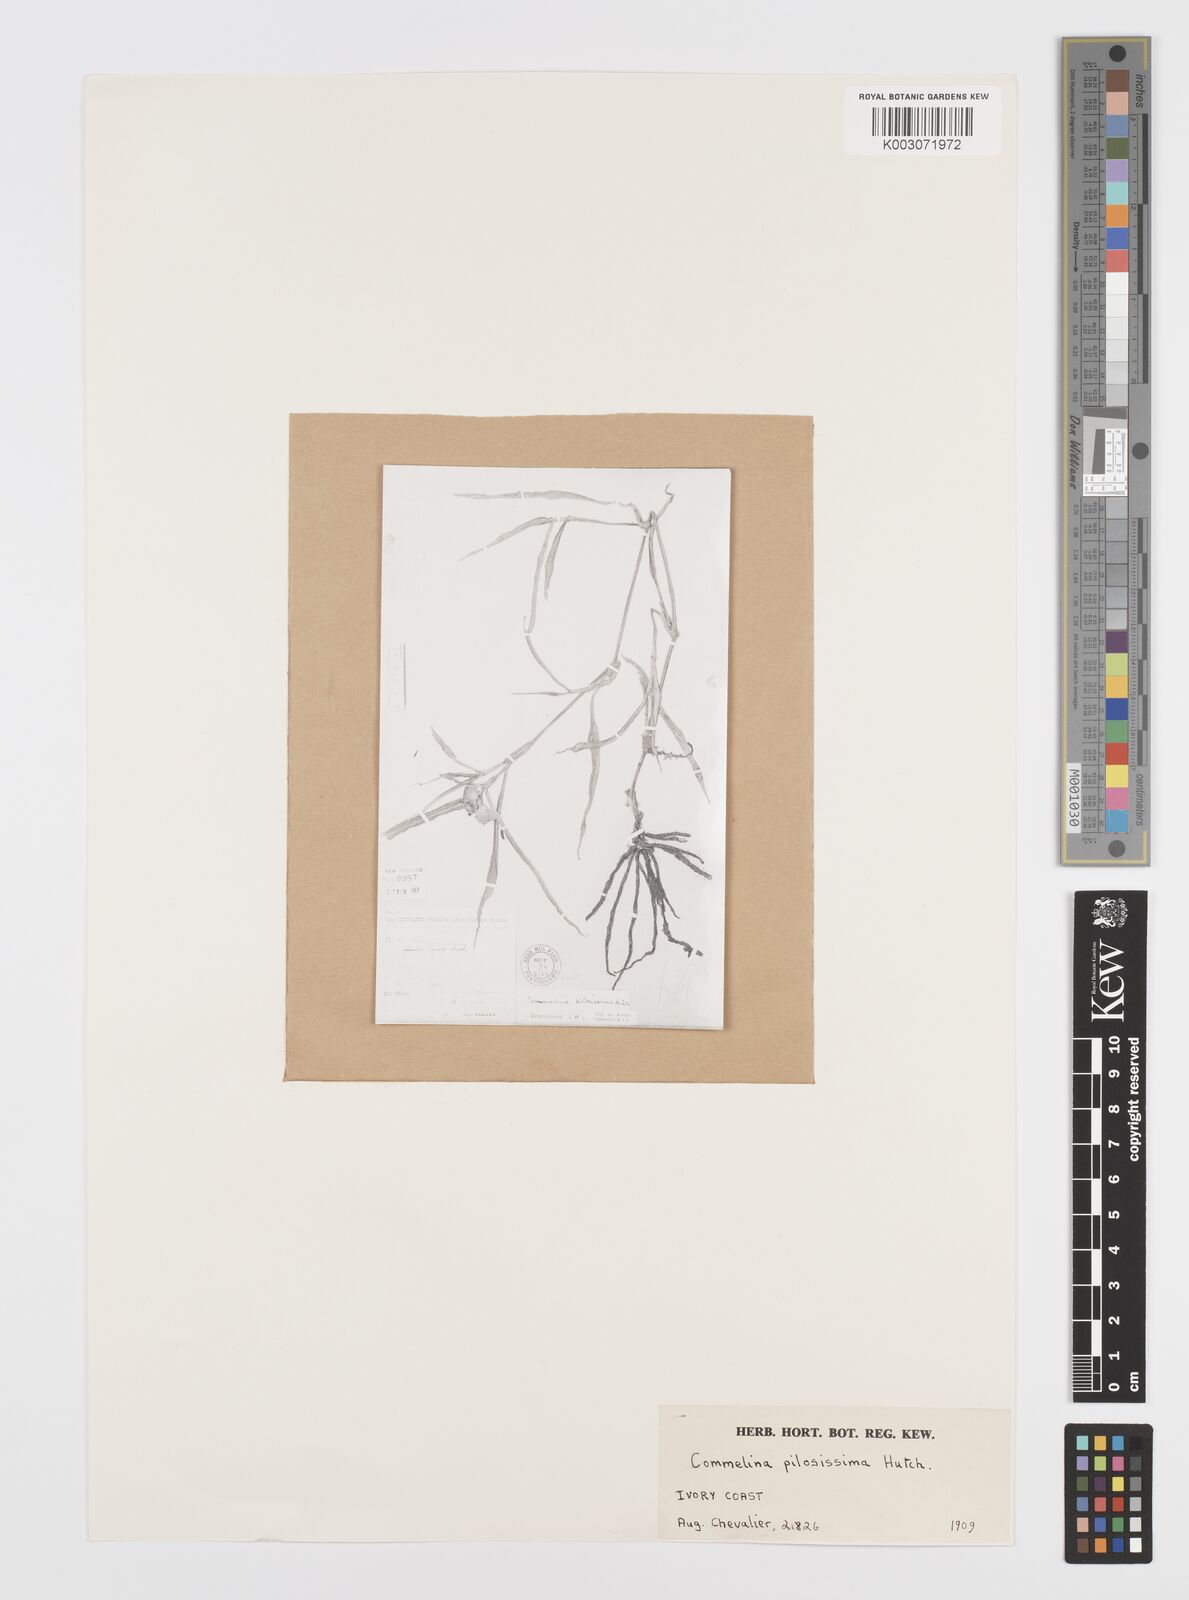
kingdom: Plantae
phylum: Tracheophyta
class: Liliopsida
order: Commelinales
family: Commelinaceae
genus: Commelina
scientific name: Commelina erecta
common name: Blousel blommetjie
